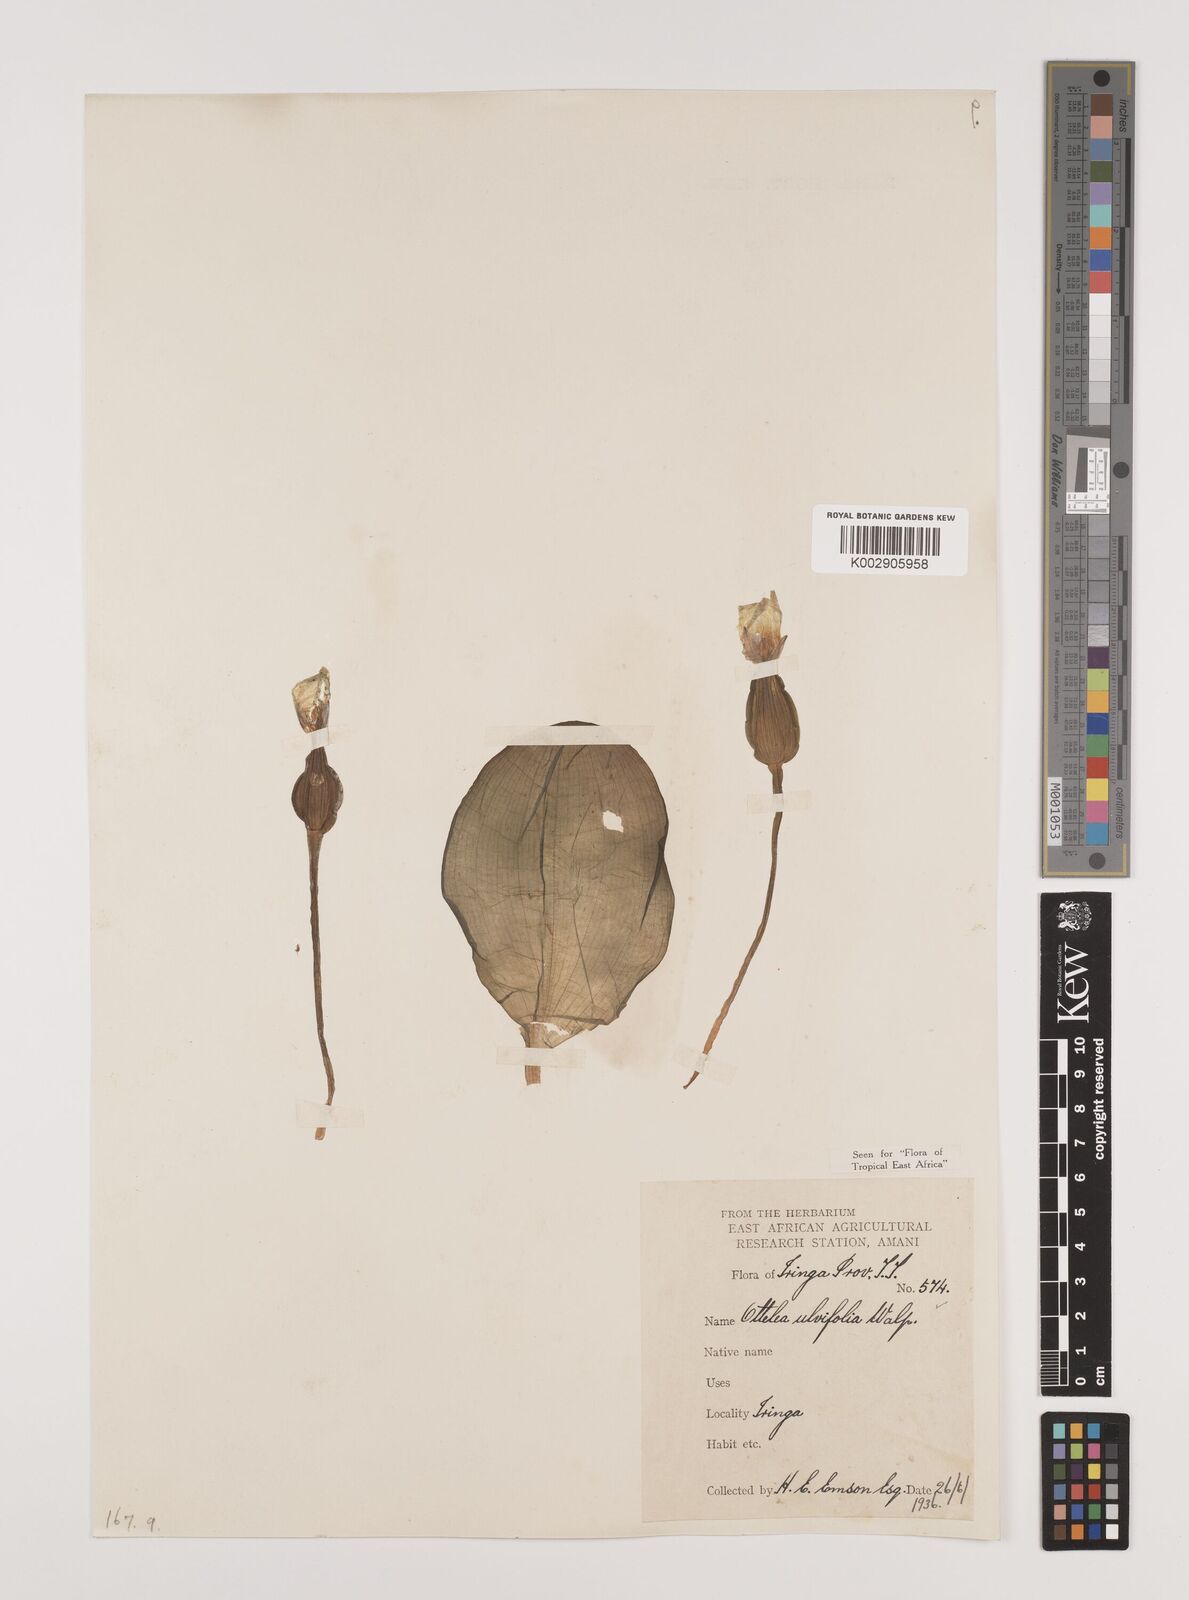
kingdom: Plantae
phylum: Tracheophyta
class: Liliopsida
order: Alismatales
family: Hydrocharitaceae
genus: Ottelia
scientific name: Ottelia ulvifolia
